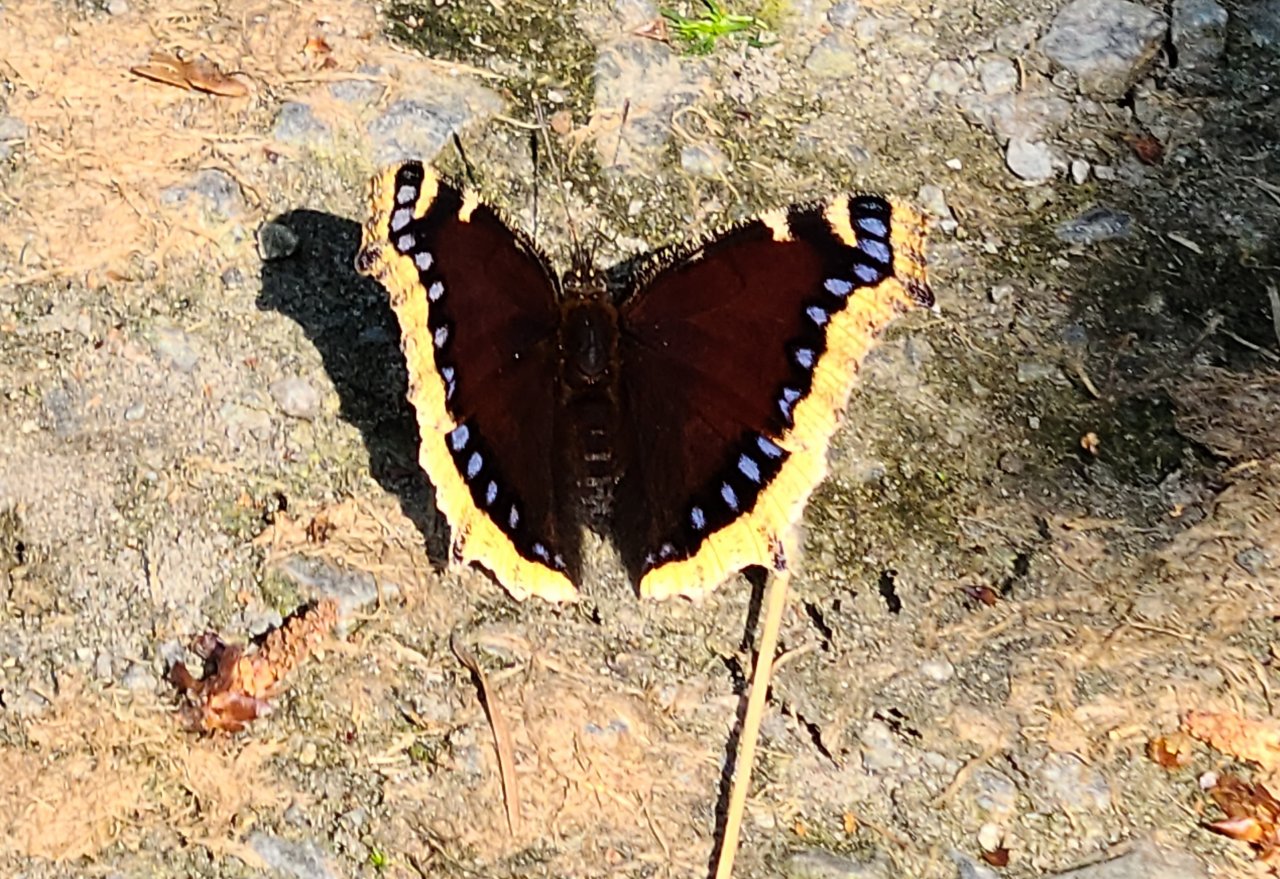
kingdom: Animalia
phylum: Arthropoda
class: Insecta
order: Lepidoptera
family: Nymphalidae
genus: Nymphalis
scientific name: Nymphalis antiopa
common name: Mourning Cloak
